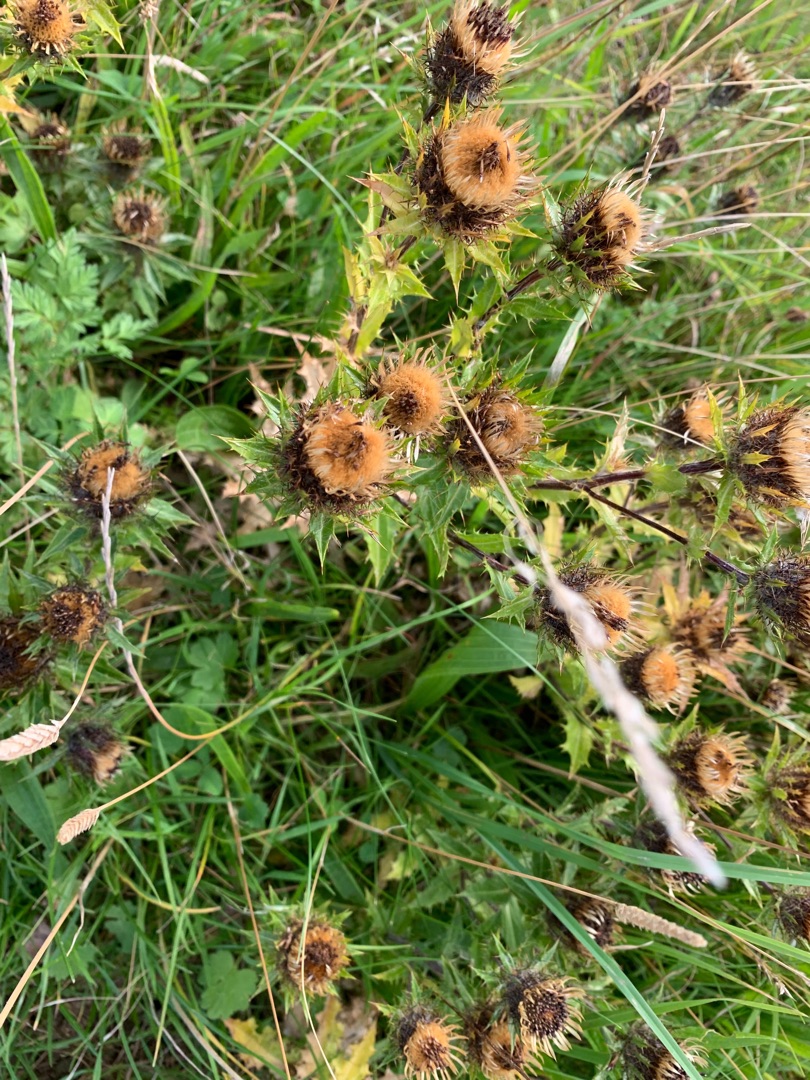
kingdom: Plantae
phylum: Tracheophyta
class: Magnoliopsida
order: Caryophyllales
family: Caryophyllaceae
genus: Silene
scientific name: Silene vulgaris
